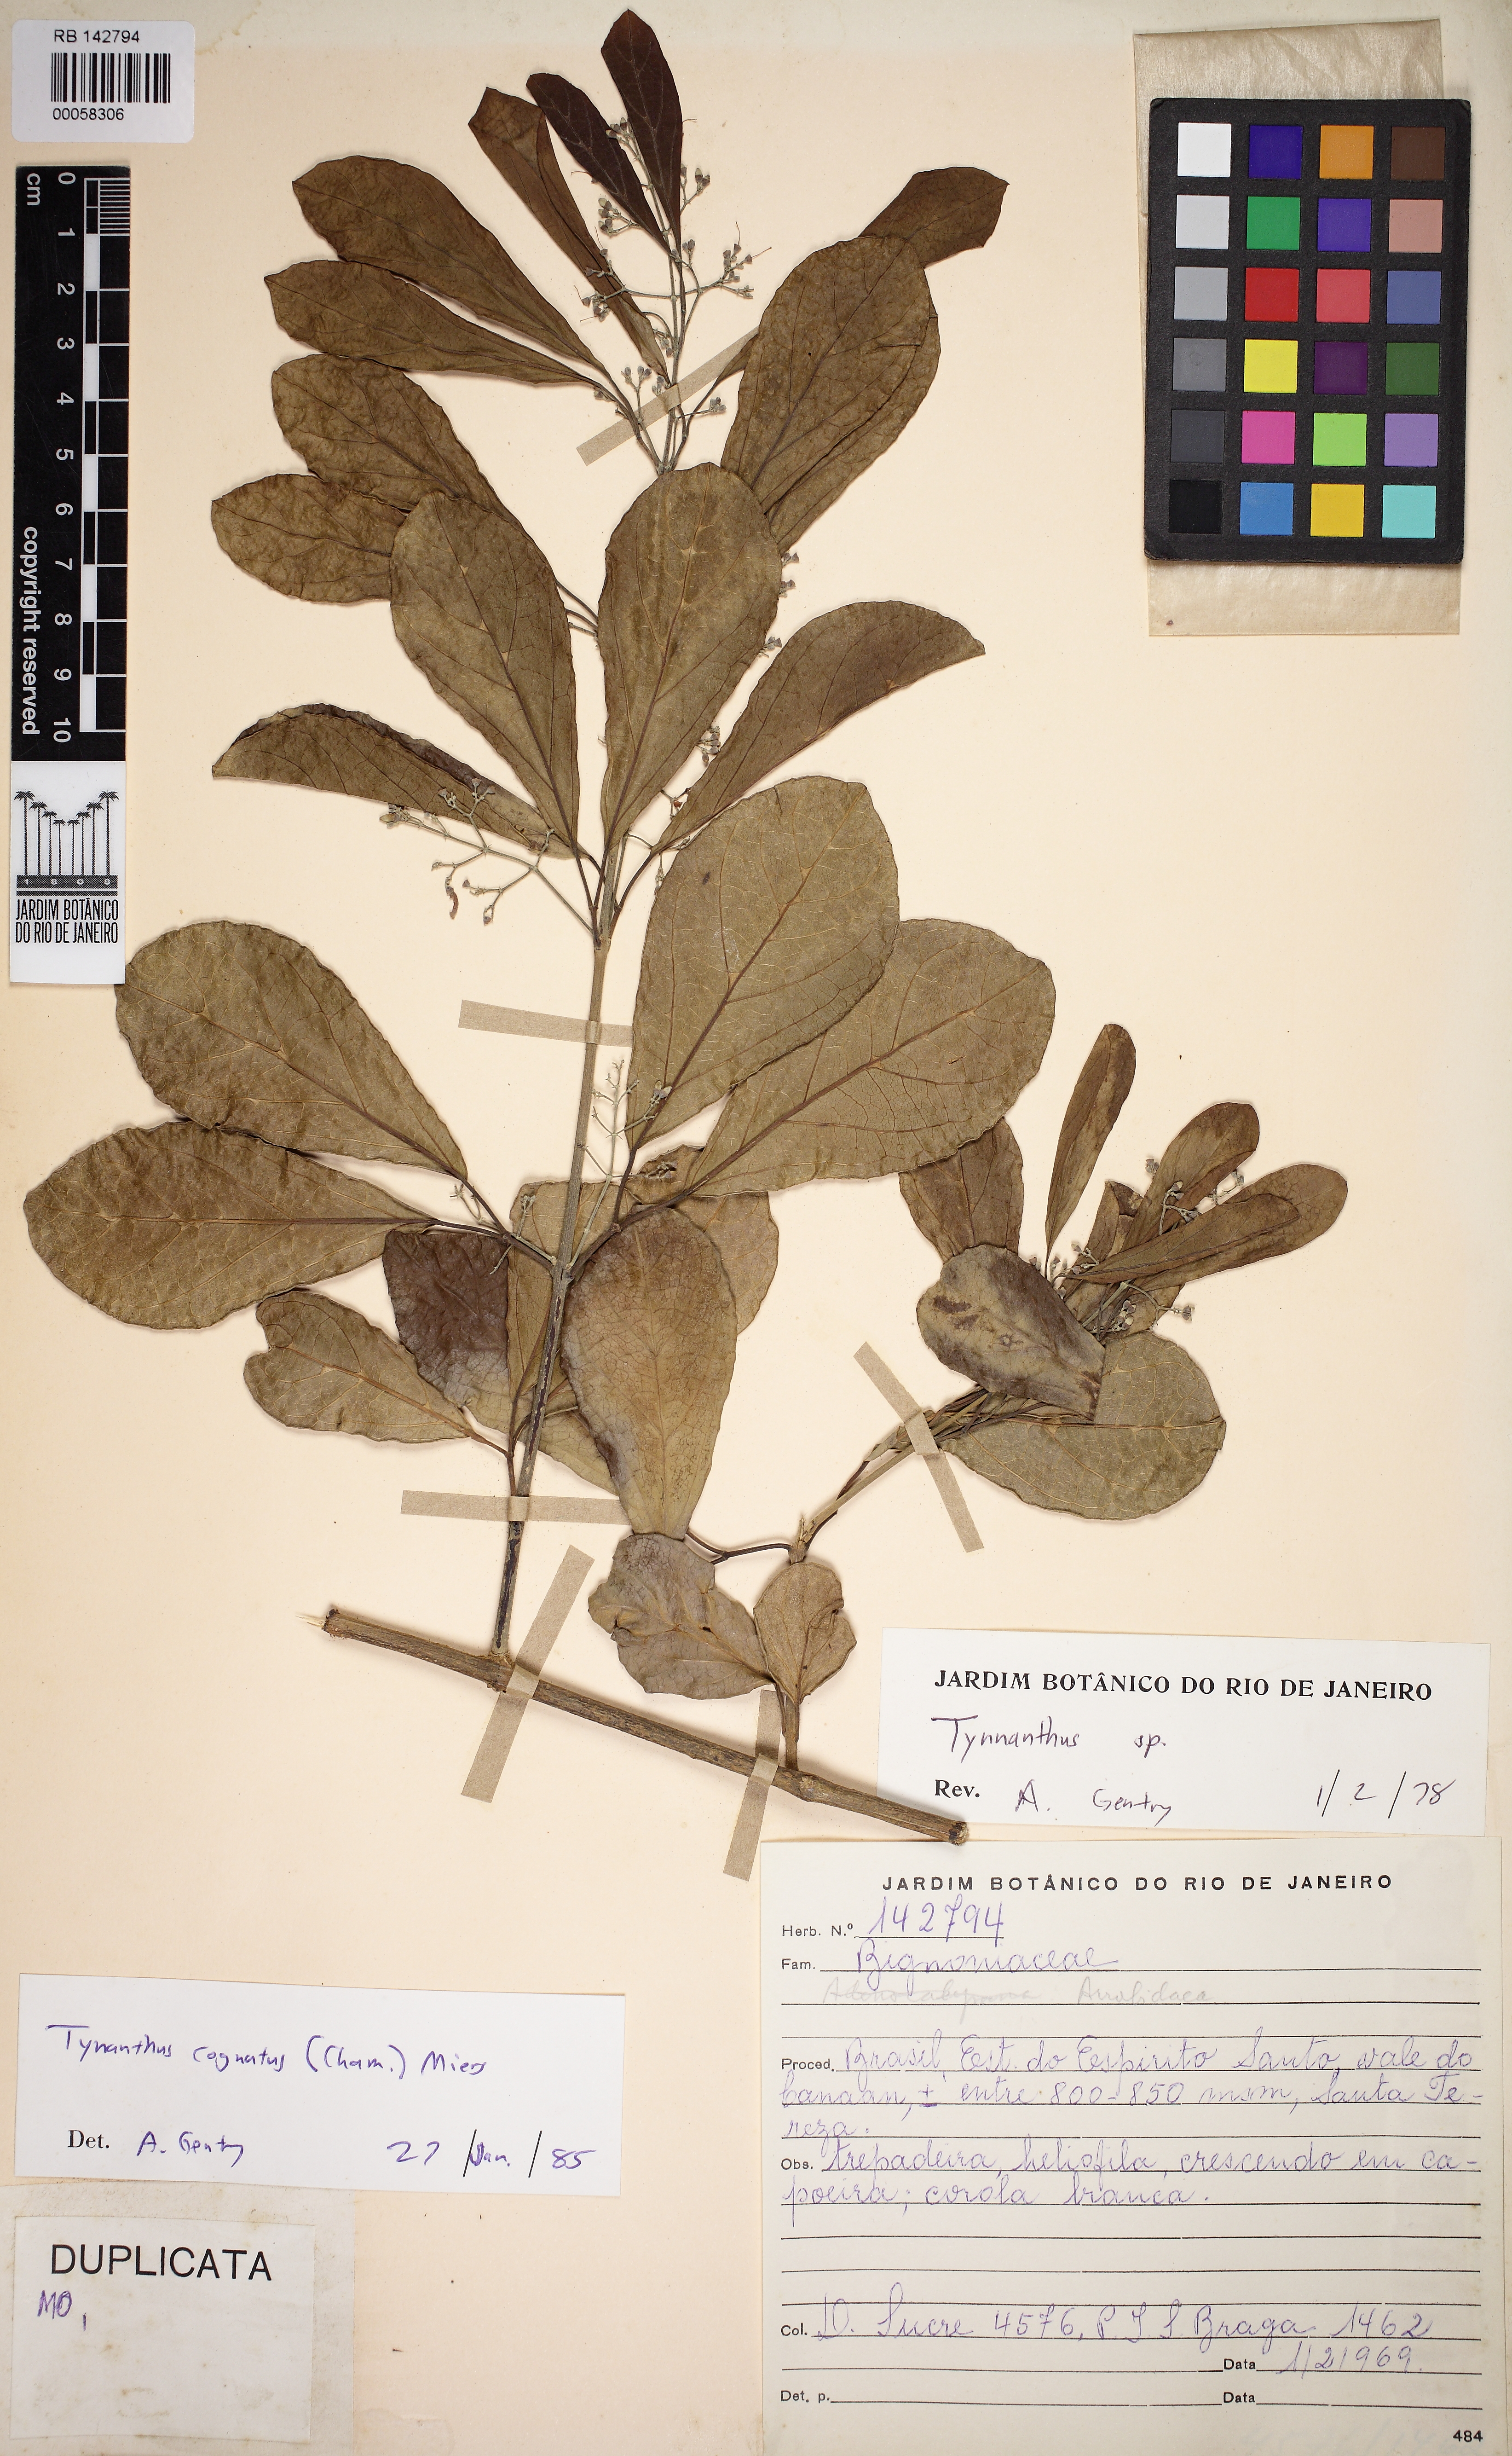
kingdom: Plantae
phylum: Tracheophyta
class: Magnoliopsida
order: Lamiales
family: Bignoniaceae
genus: Tynanthus
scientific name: Tynanthus cognatus
